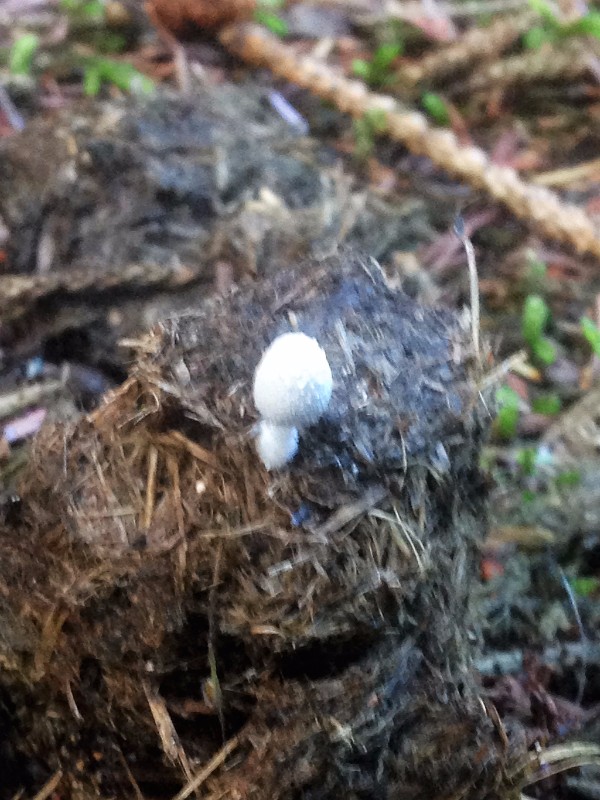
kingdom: Fungi
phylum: Basidiomycota
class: Agaricomycetes
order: Agaricales
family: Psathyrellaceae
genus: Coprinopsis
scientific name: Coprinopsis nivea
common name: snehvid blækhat
